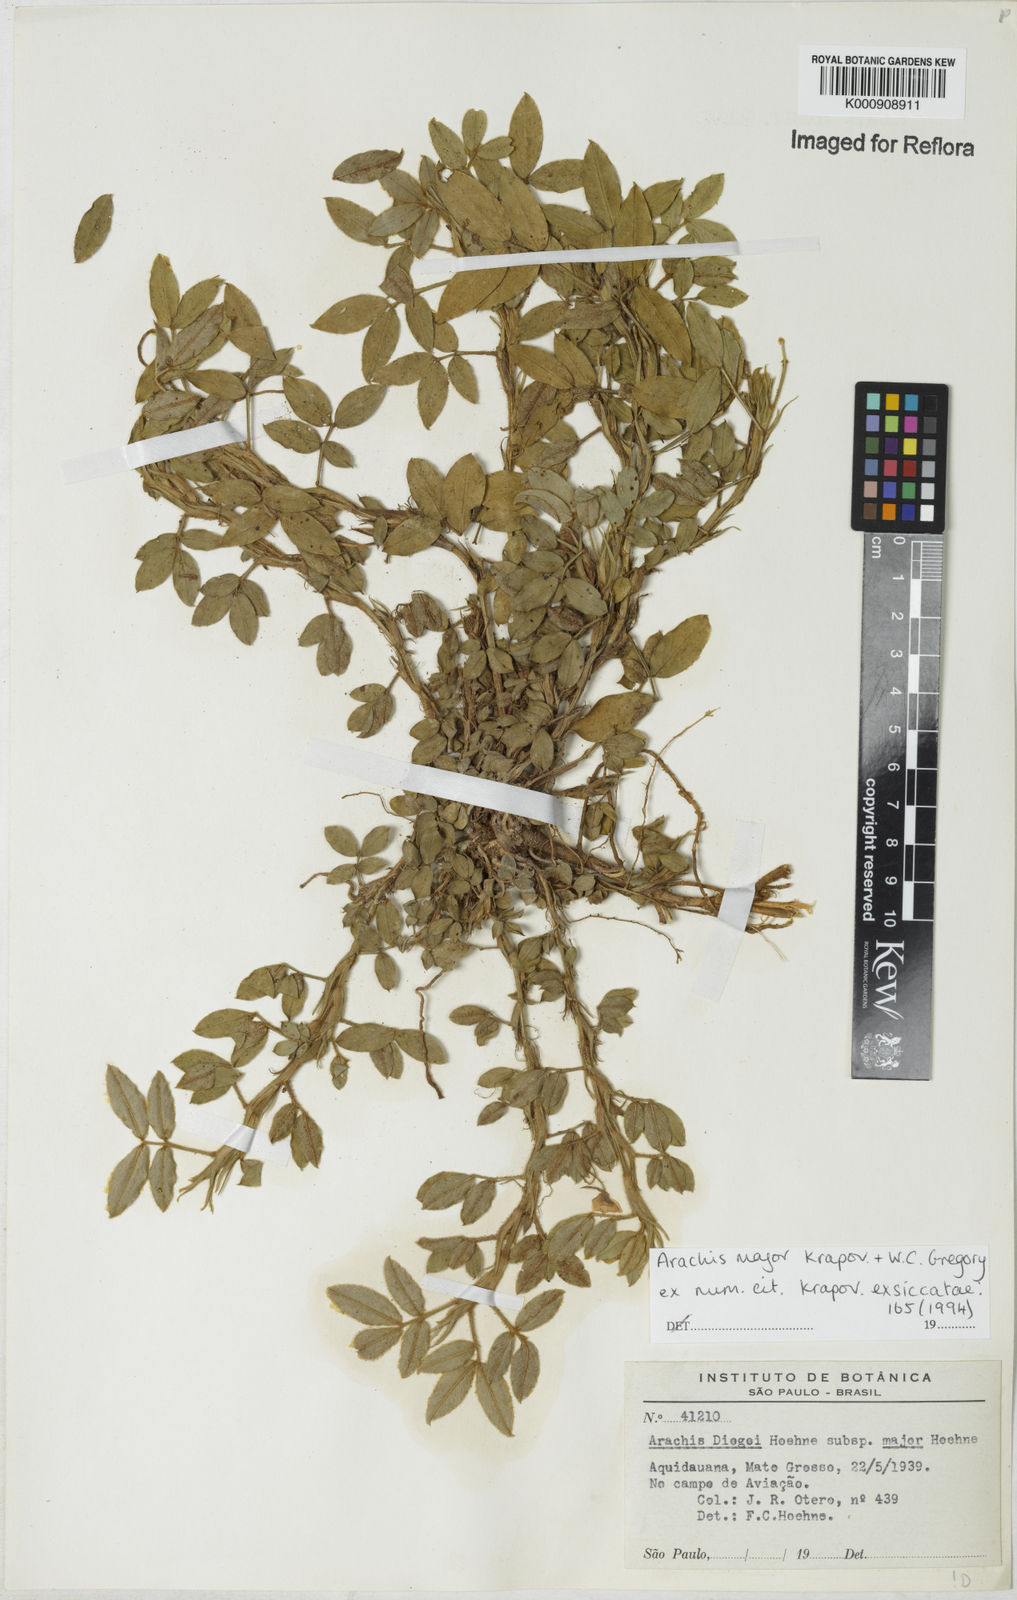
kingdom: Plantae
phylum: Tracheophyta
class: Magnoliopsida
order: Fabales
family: Fabaceae
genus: Arachis
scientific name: Arachis major
